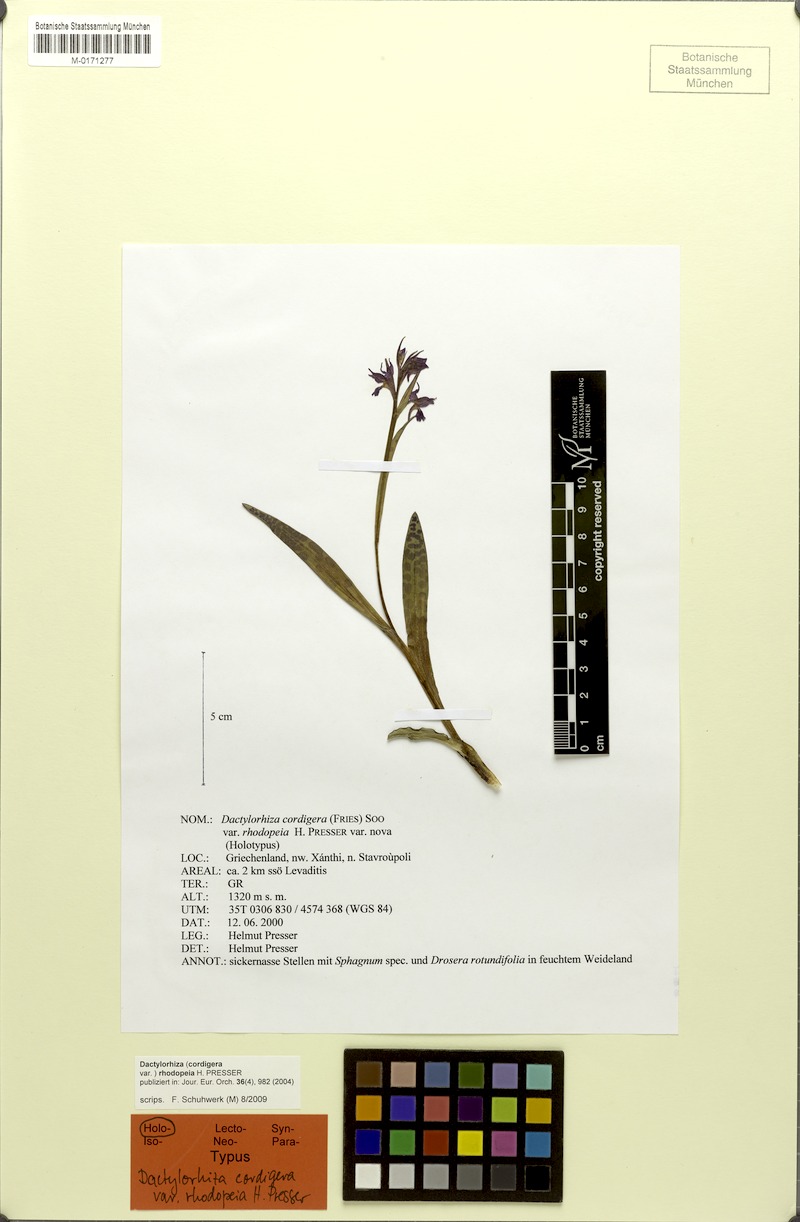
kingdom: Plantae
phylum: Tracheophyta
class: Liliopsida
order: Asparagales
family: Orchidaceae
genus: Dactylorhiza
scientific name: Dactylorhiza majalis
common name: Marsh orchid
